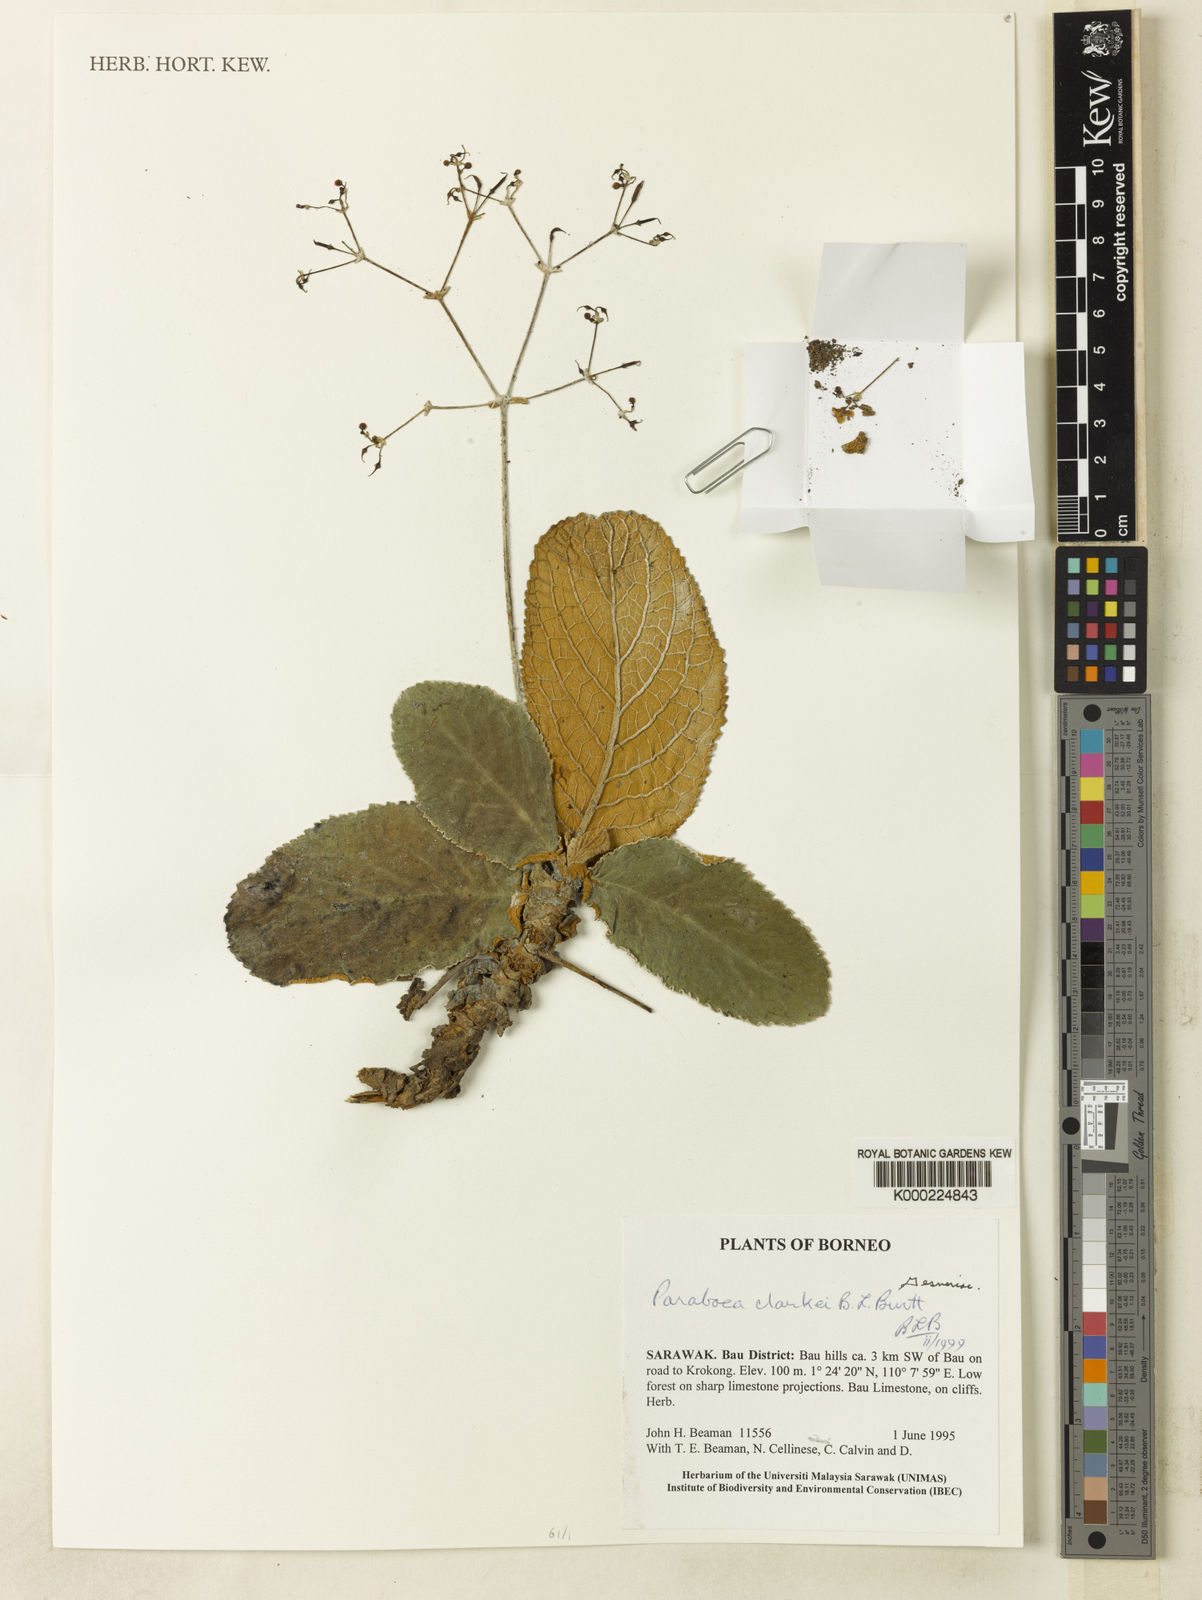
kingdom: Plantae
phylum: Tracheophyta
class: Magnoliopsida
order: Lamiales
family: Gesneriaceae
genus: Paraboea
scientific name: Paraboea clarkei
